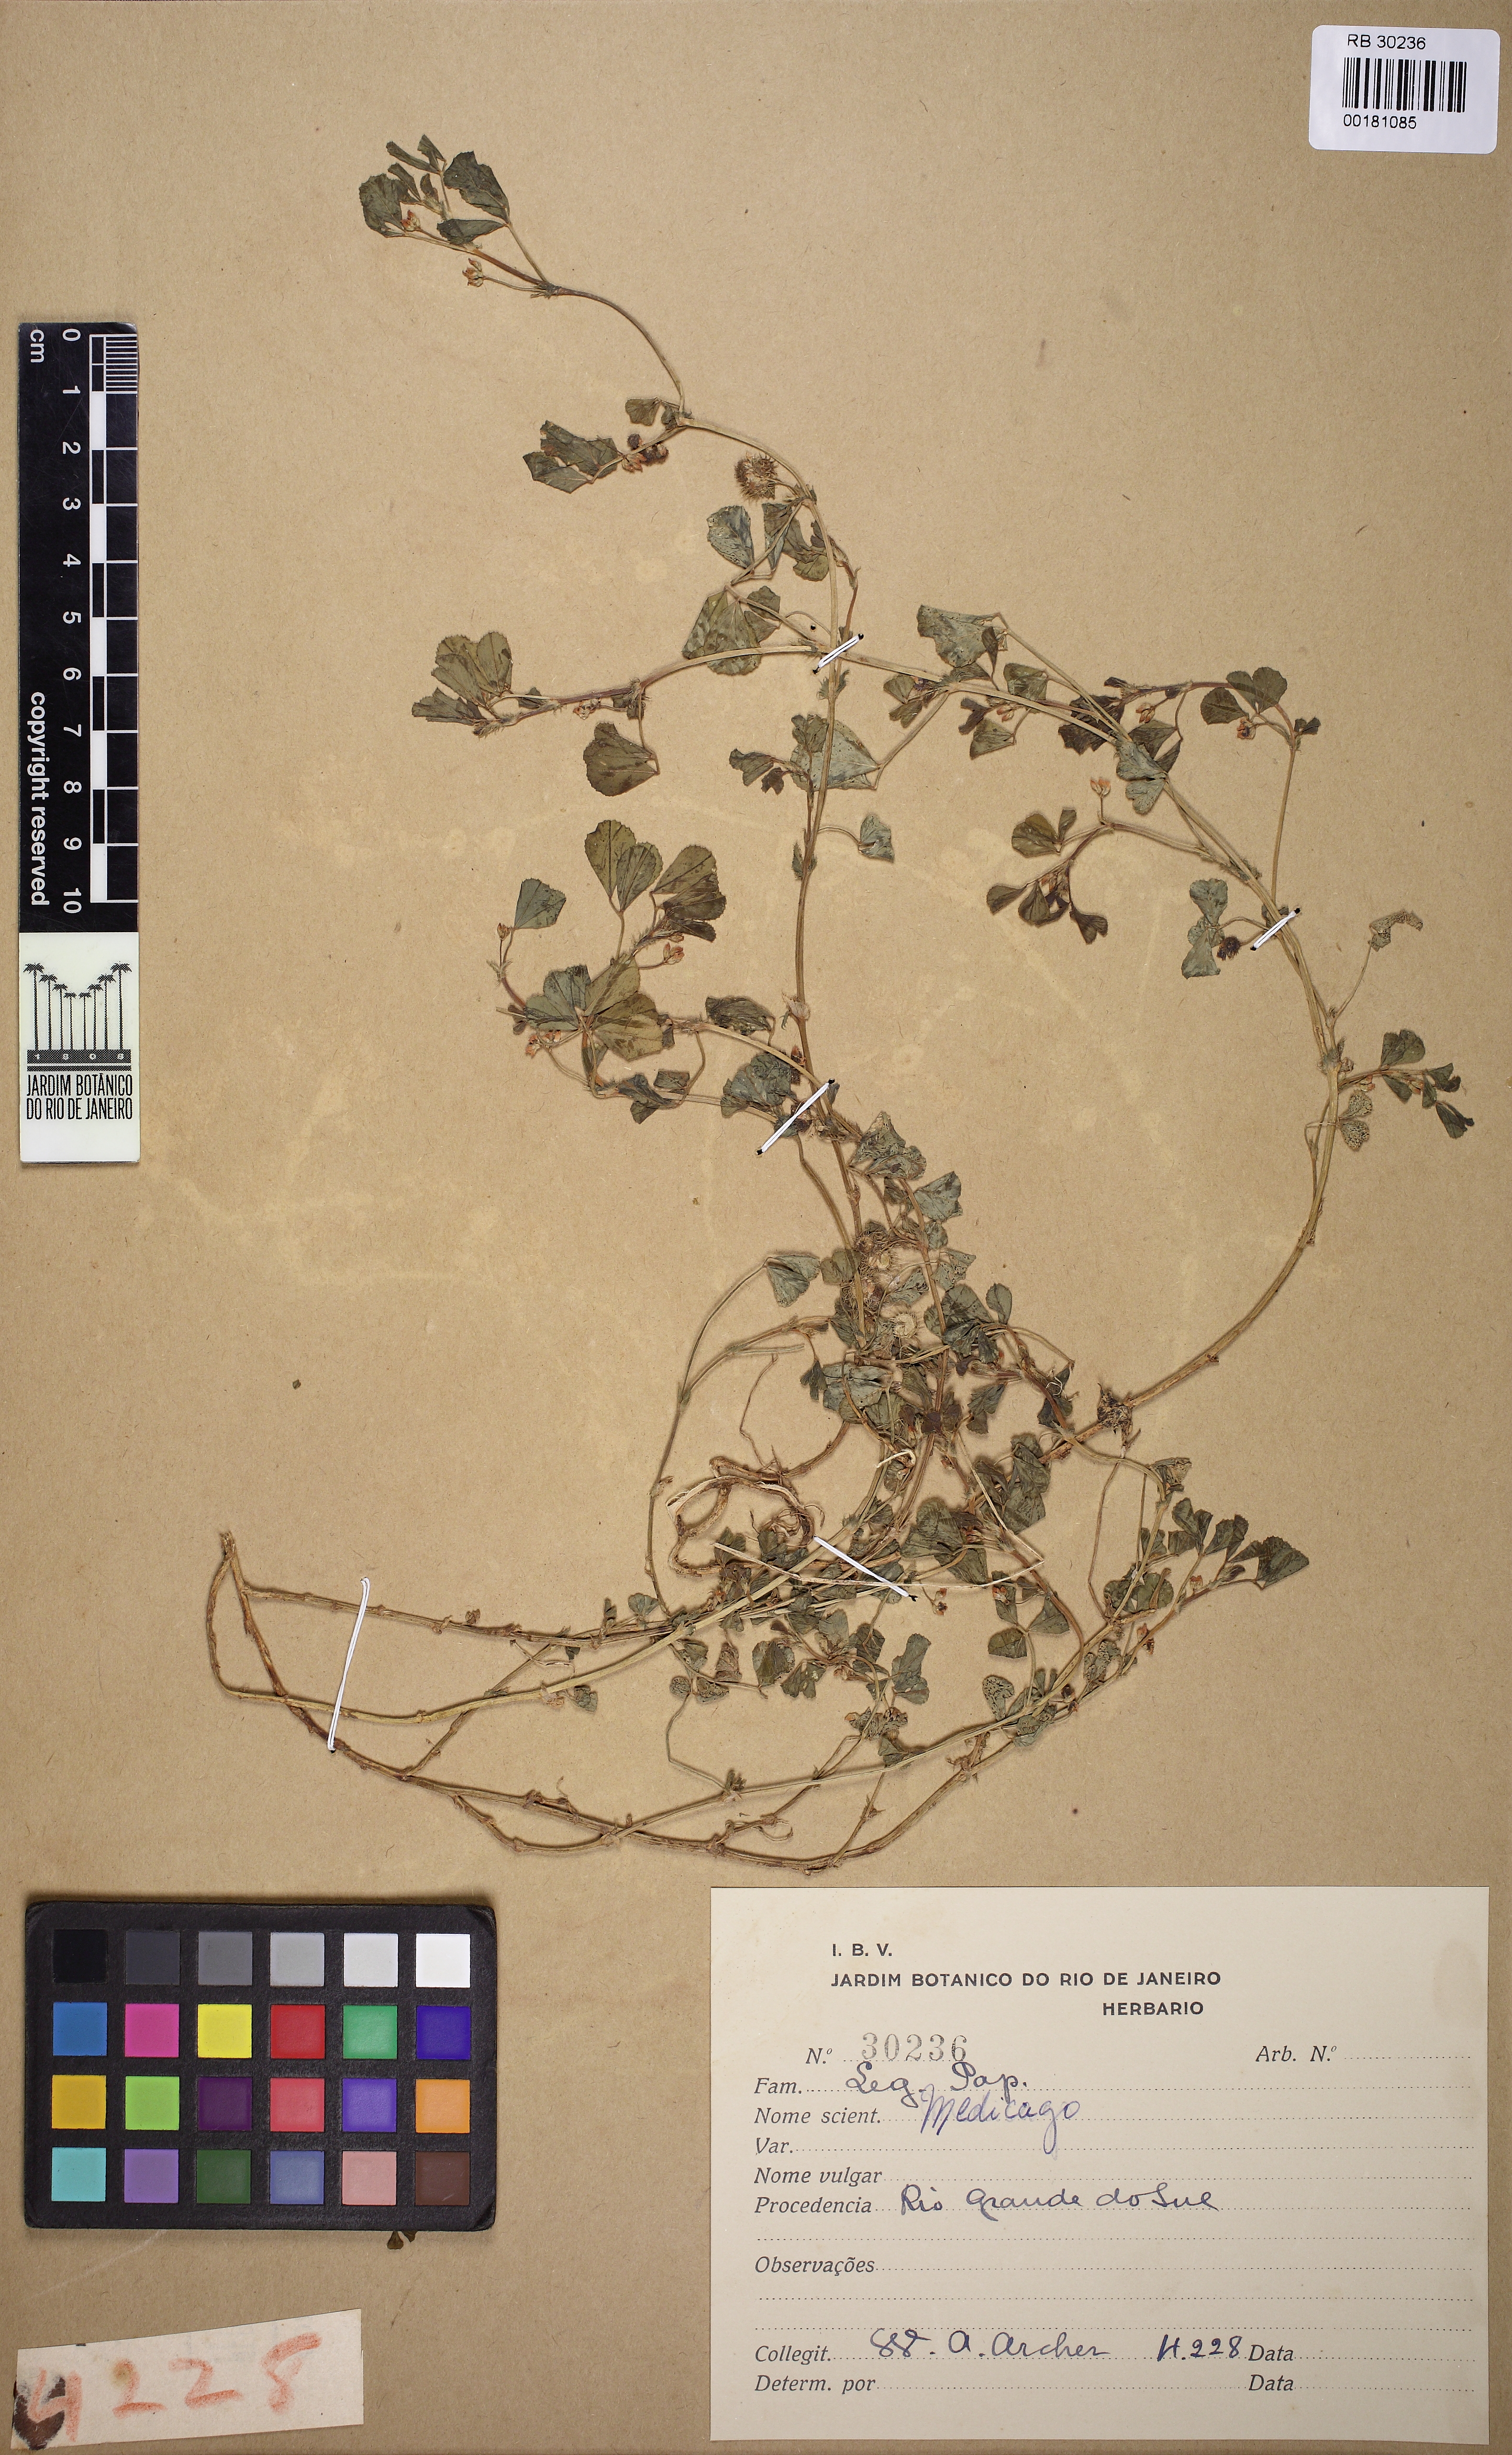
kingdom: Plantae
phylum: Tracheophyta
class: Magnoliopsida
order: Fabales
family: Fabaceae
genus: Medicago
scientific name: Medicago
